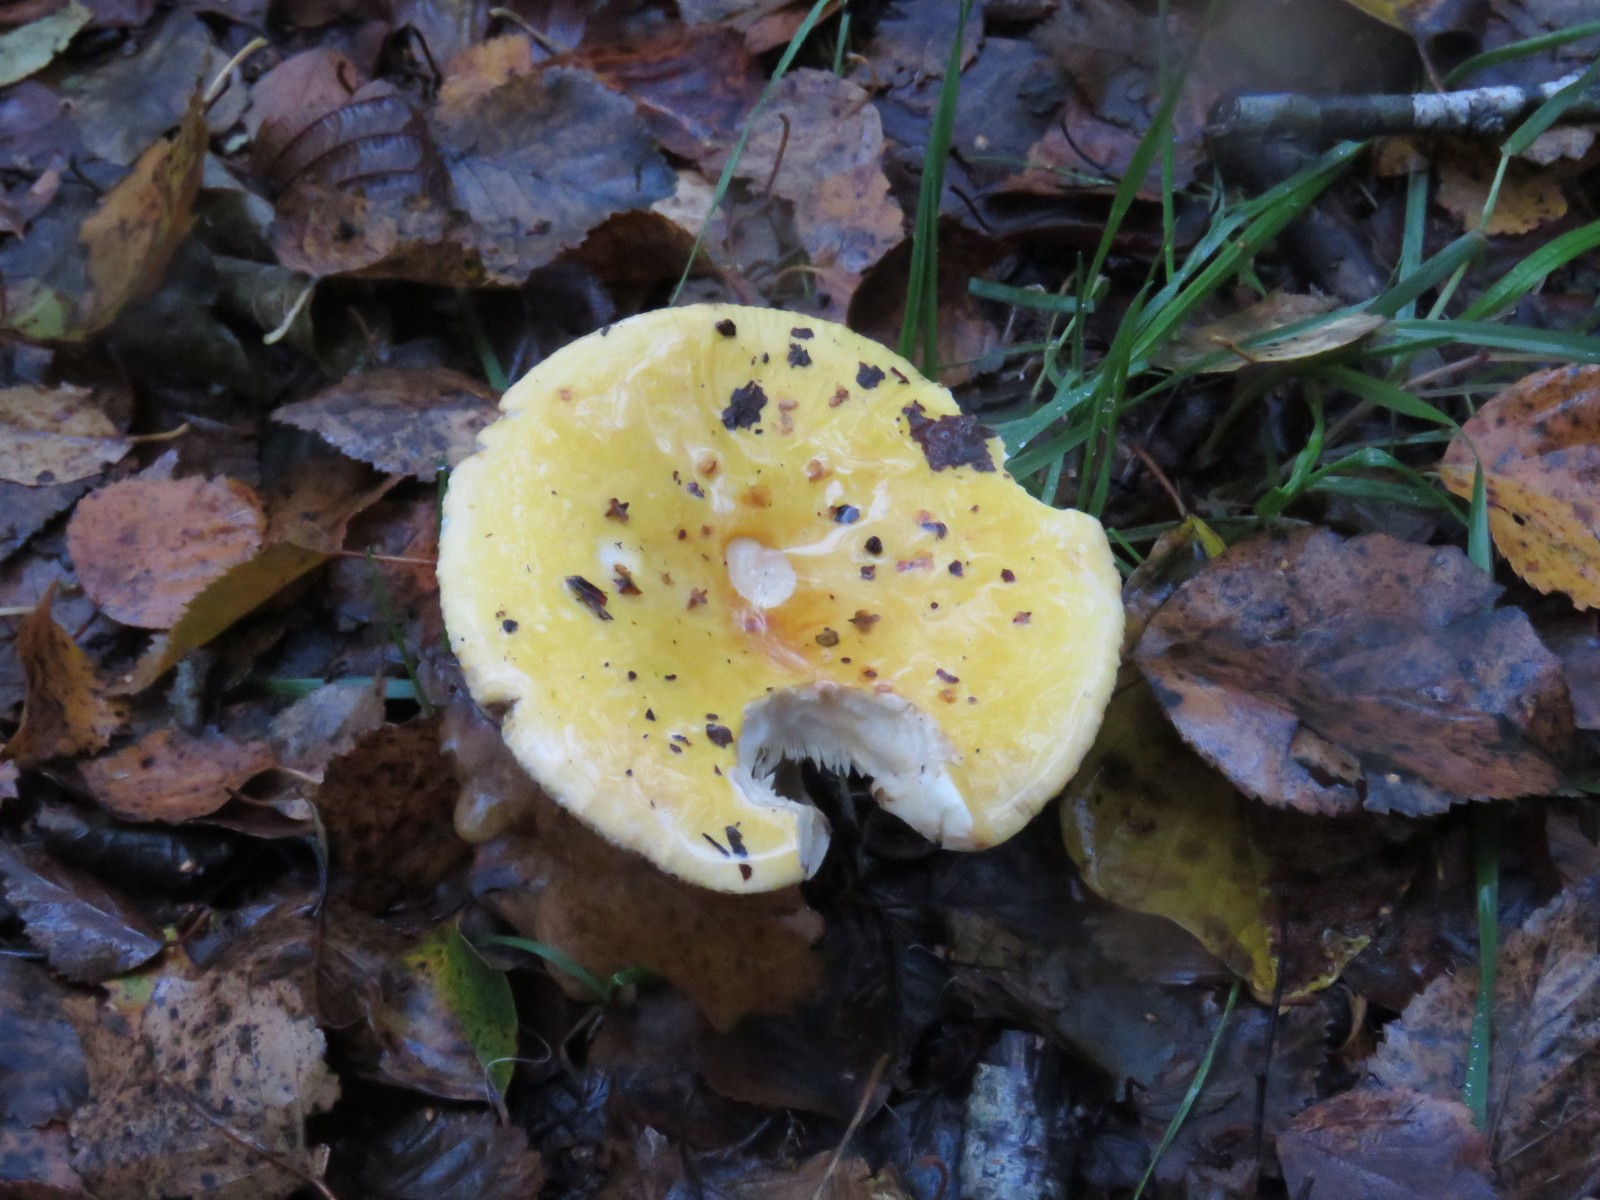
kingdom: Fungi
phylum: Basidiomycota
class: Agaricomycetes
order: Russulales
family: Russulaceae
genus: Russula
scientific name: Russula claroflava
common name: birke-skørhat
